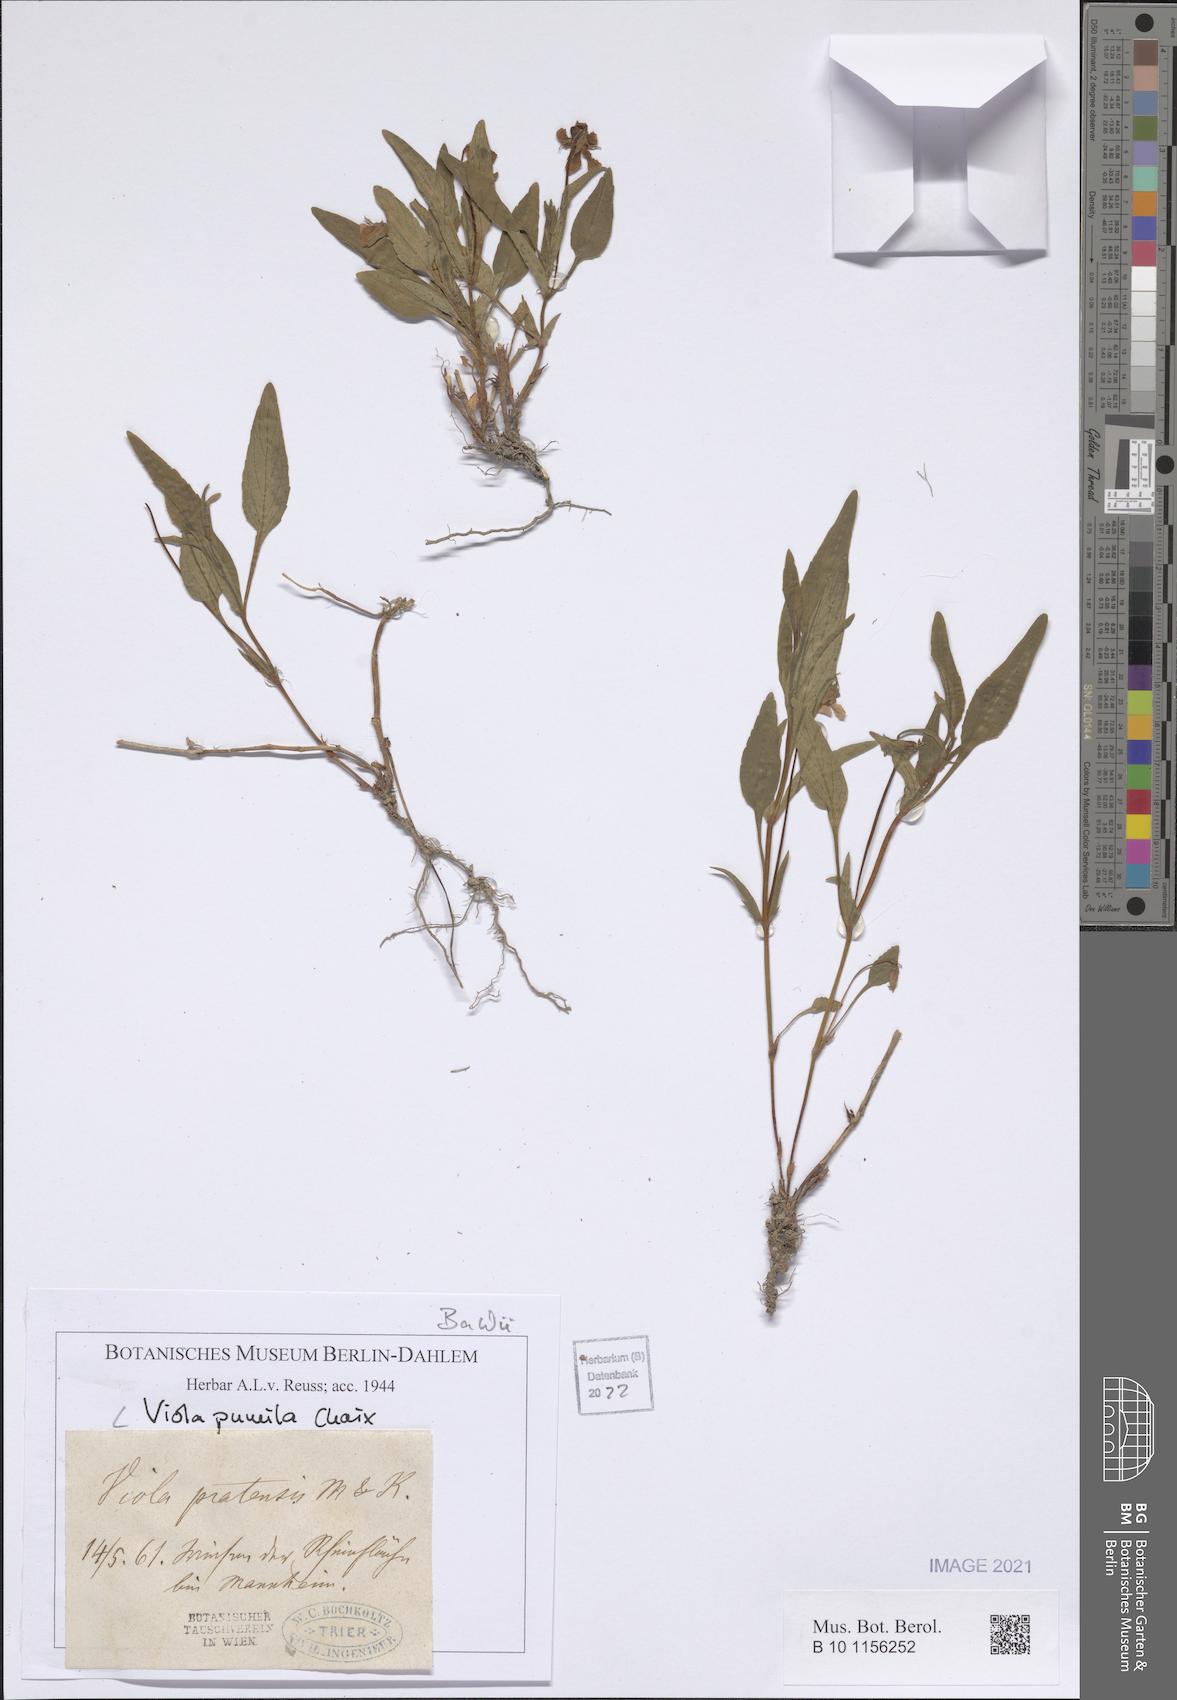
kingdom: Plantae
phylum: Tracheophyta
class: Magnoliopsida
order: Malpighiales
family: Violaceae
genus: Viola
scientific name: Viola pumila
